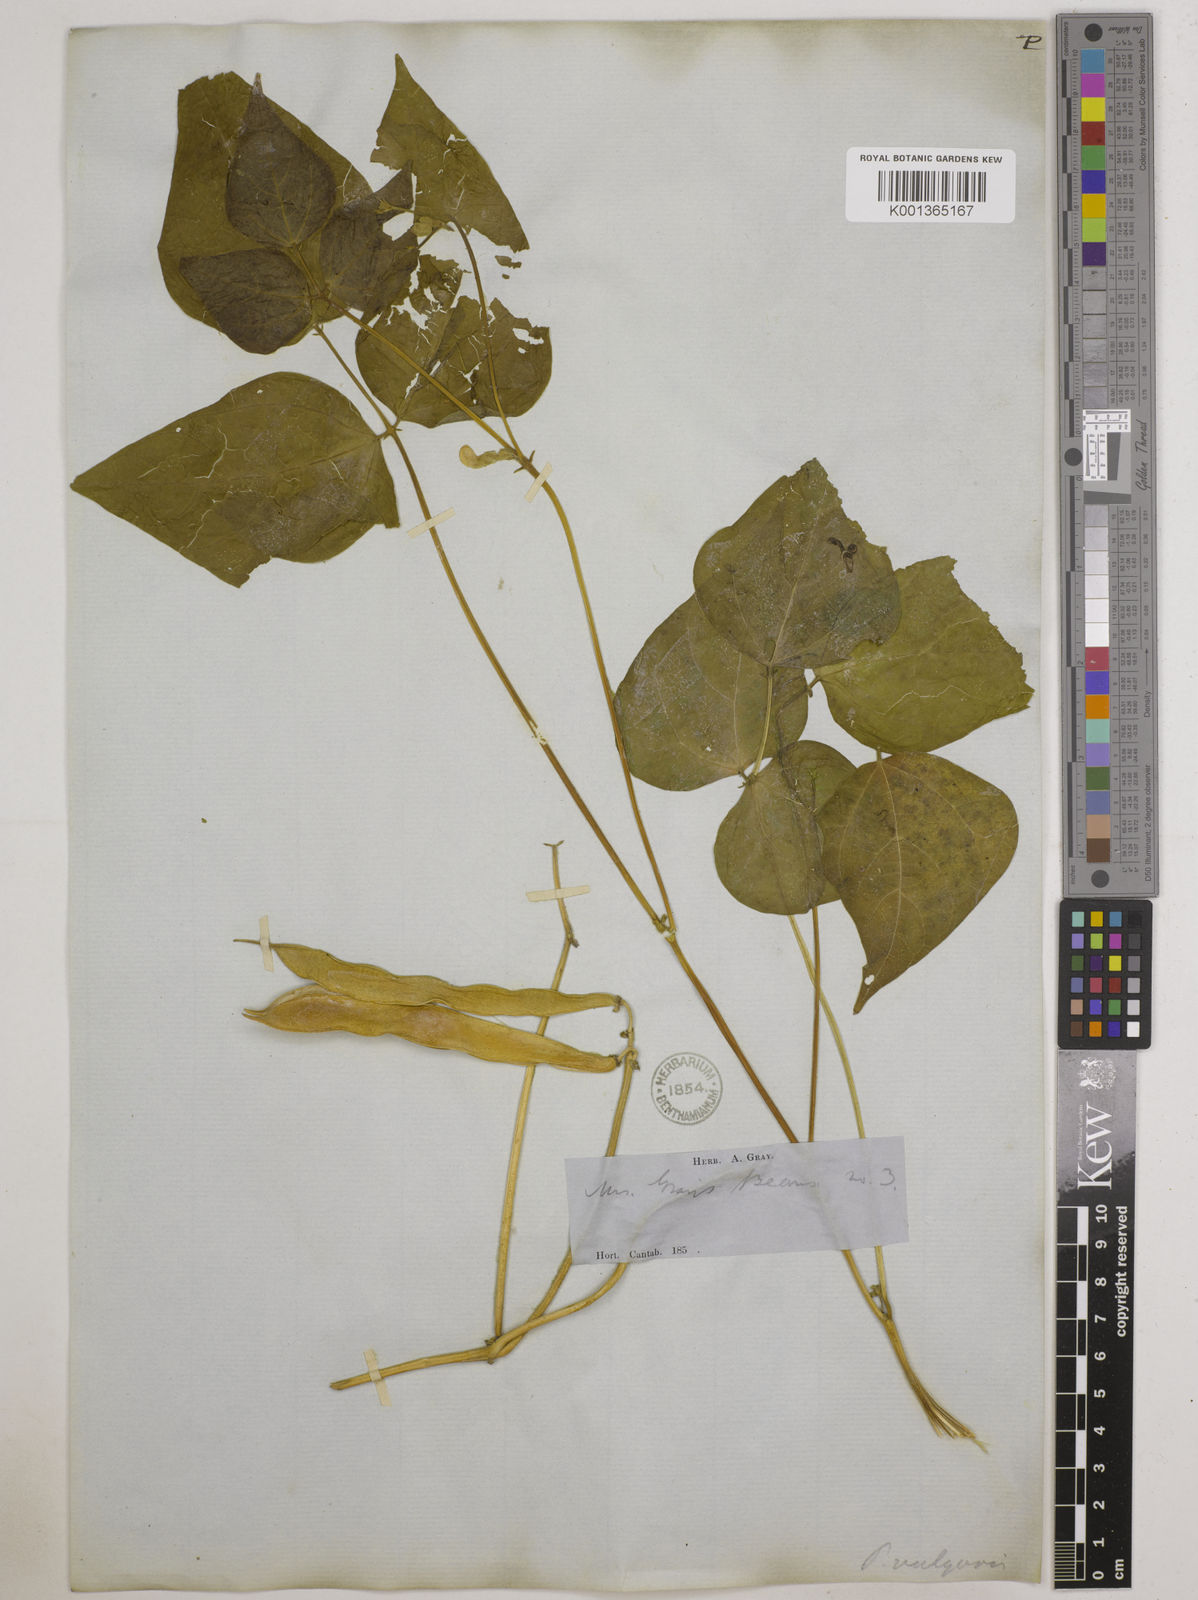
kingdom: Plantae
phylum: Tracheophyta
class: Magnoliopsida
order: Fabales
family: Fabaceae
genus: Phaseolus
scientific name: Phaseolus vulgaris
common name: Bean
